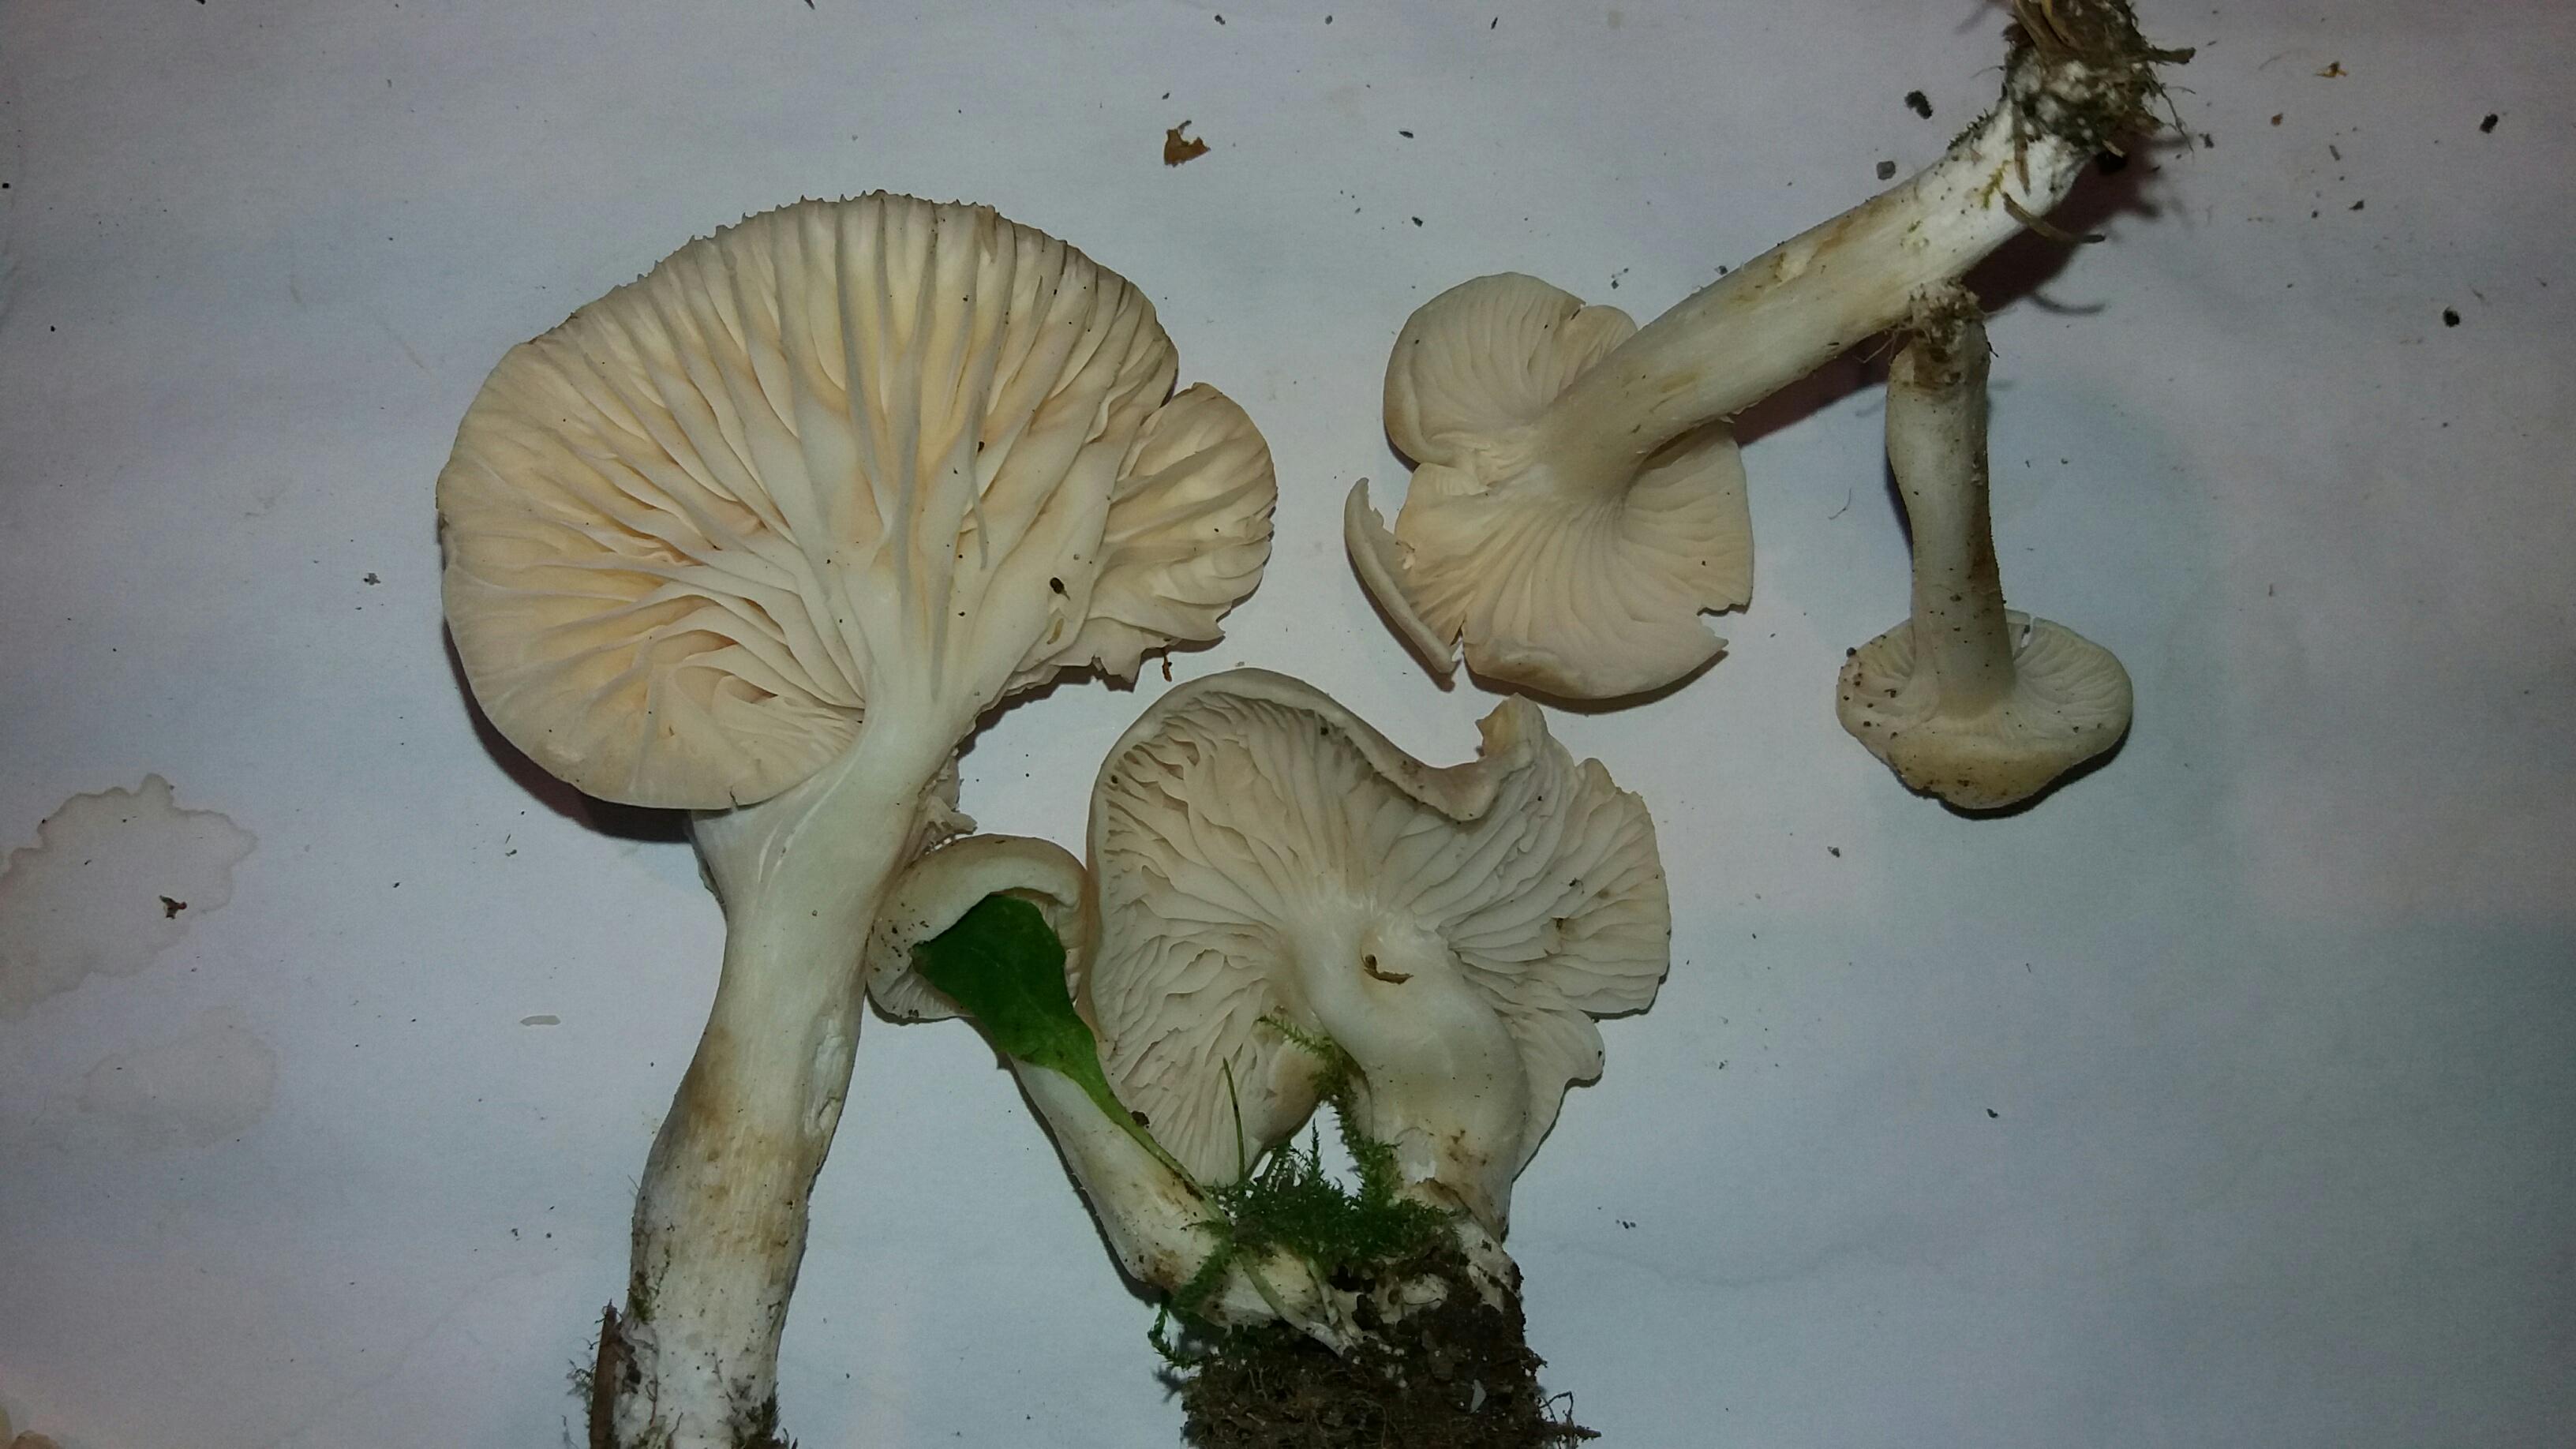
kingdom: Fungi
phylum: Basidiomycota
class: Agaricomycetes
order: Agaricales
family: Hygrophoraceae
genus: Cuphophyllus
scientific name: Cuphophyllus virgineus
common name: snehvid vokshat
